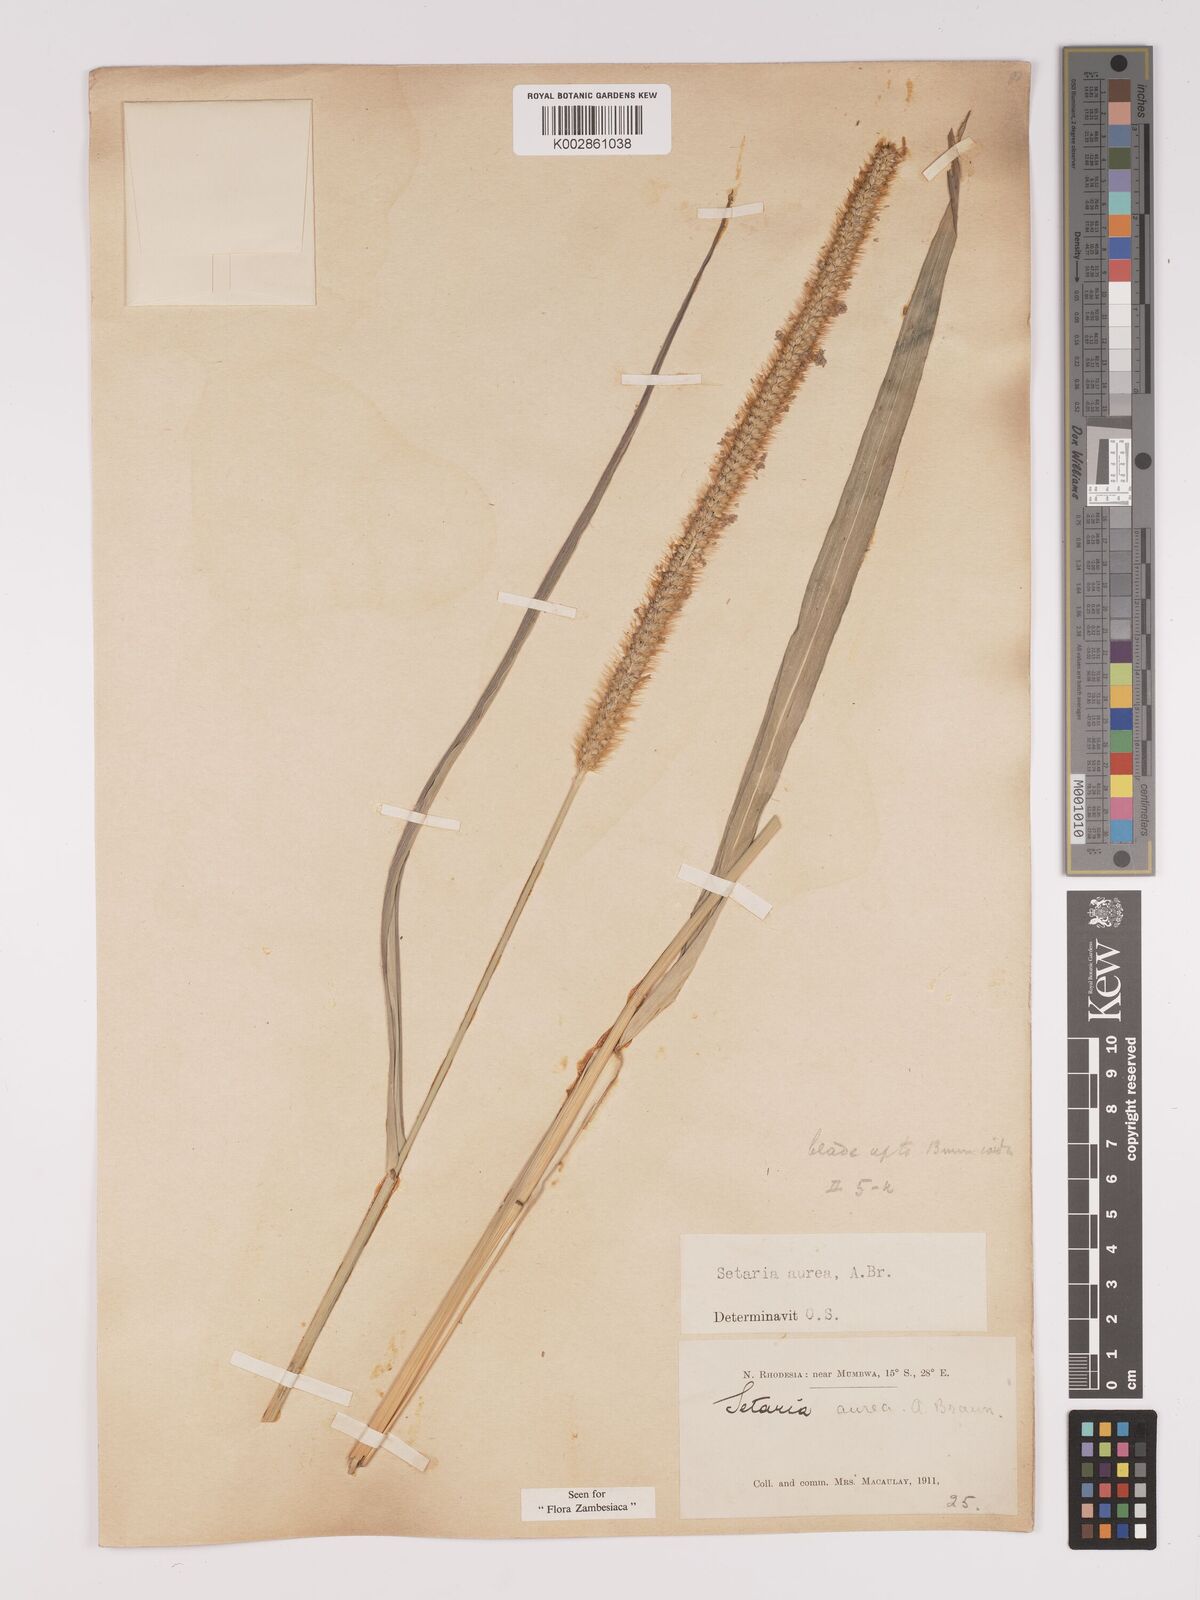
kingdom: Plantae
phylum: Tracheophyta
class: Liliopsida
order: Poales
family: Poaceae
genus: Setaria
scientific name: Setaria sphacelata
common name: African bristlegrass
